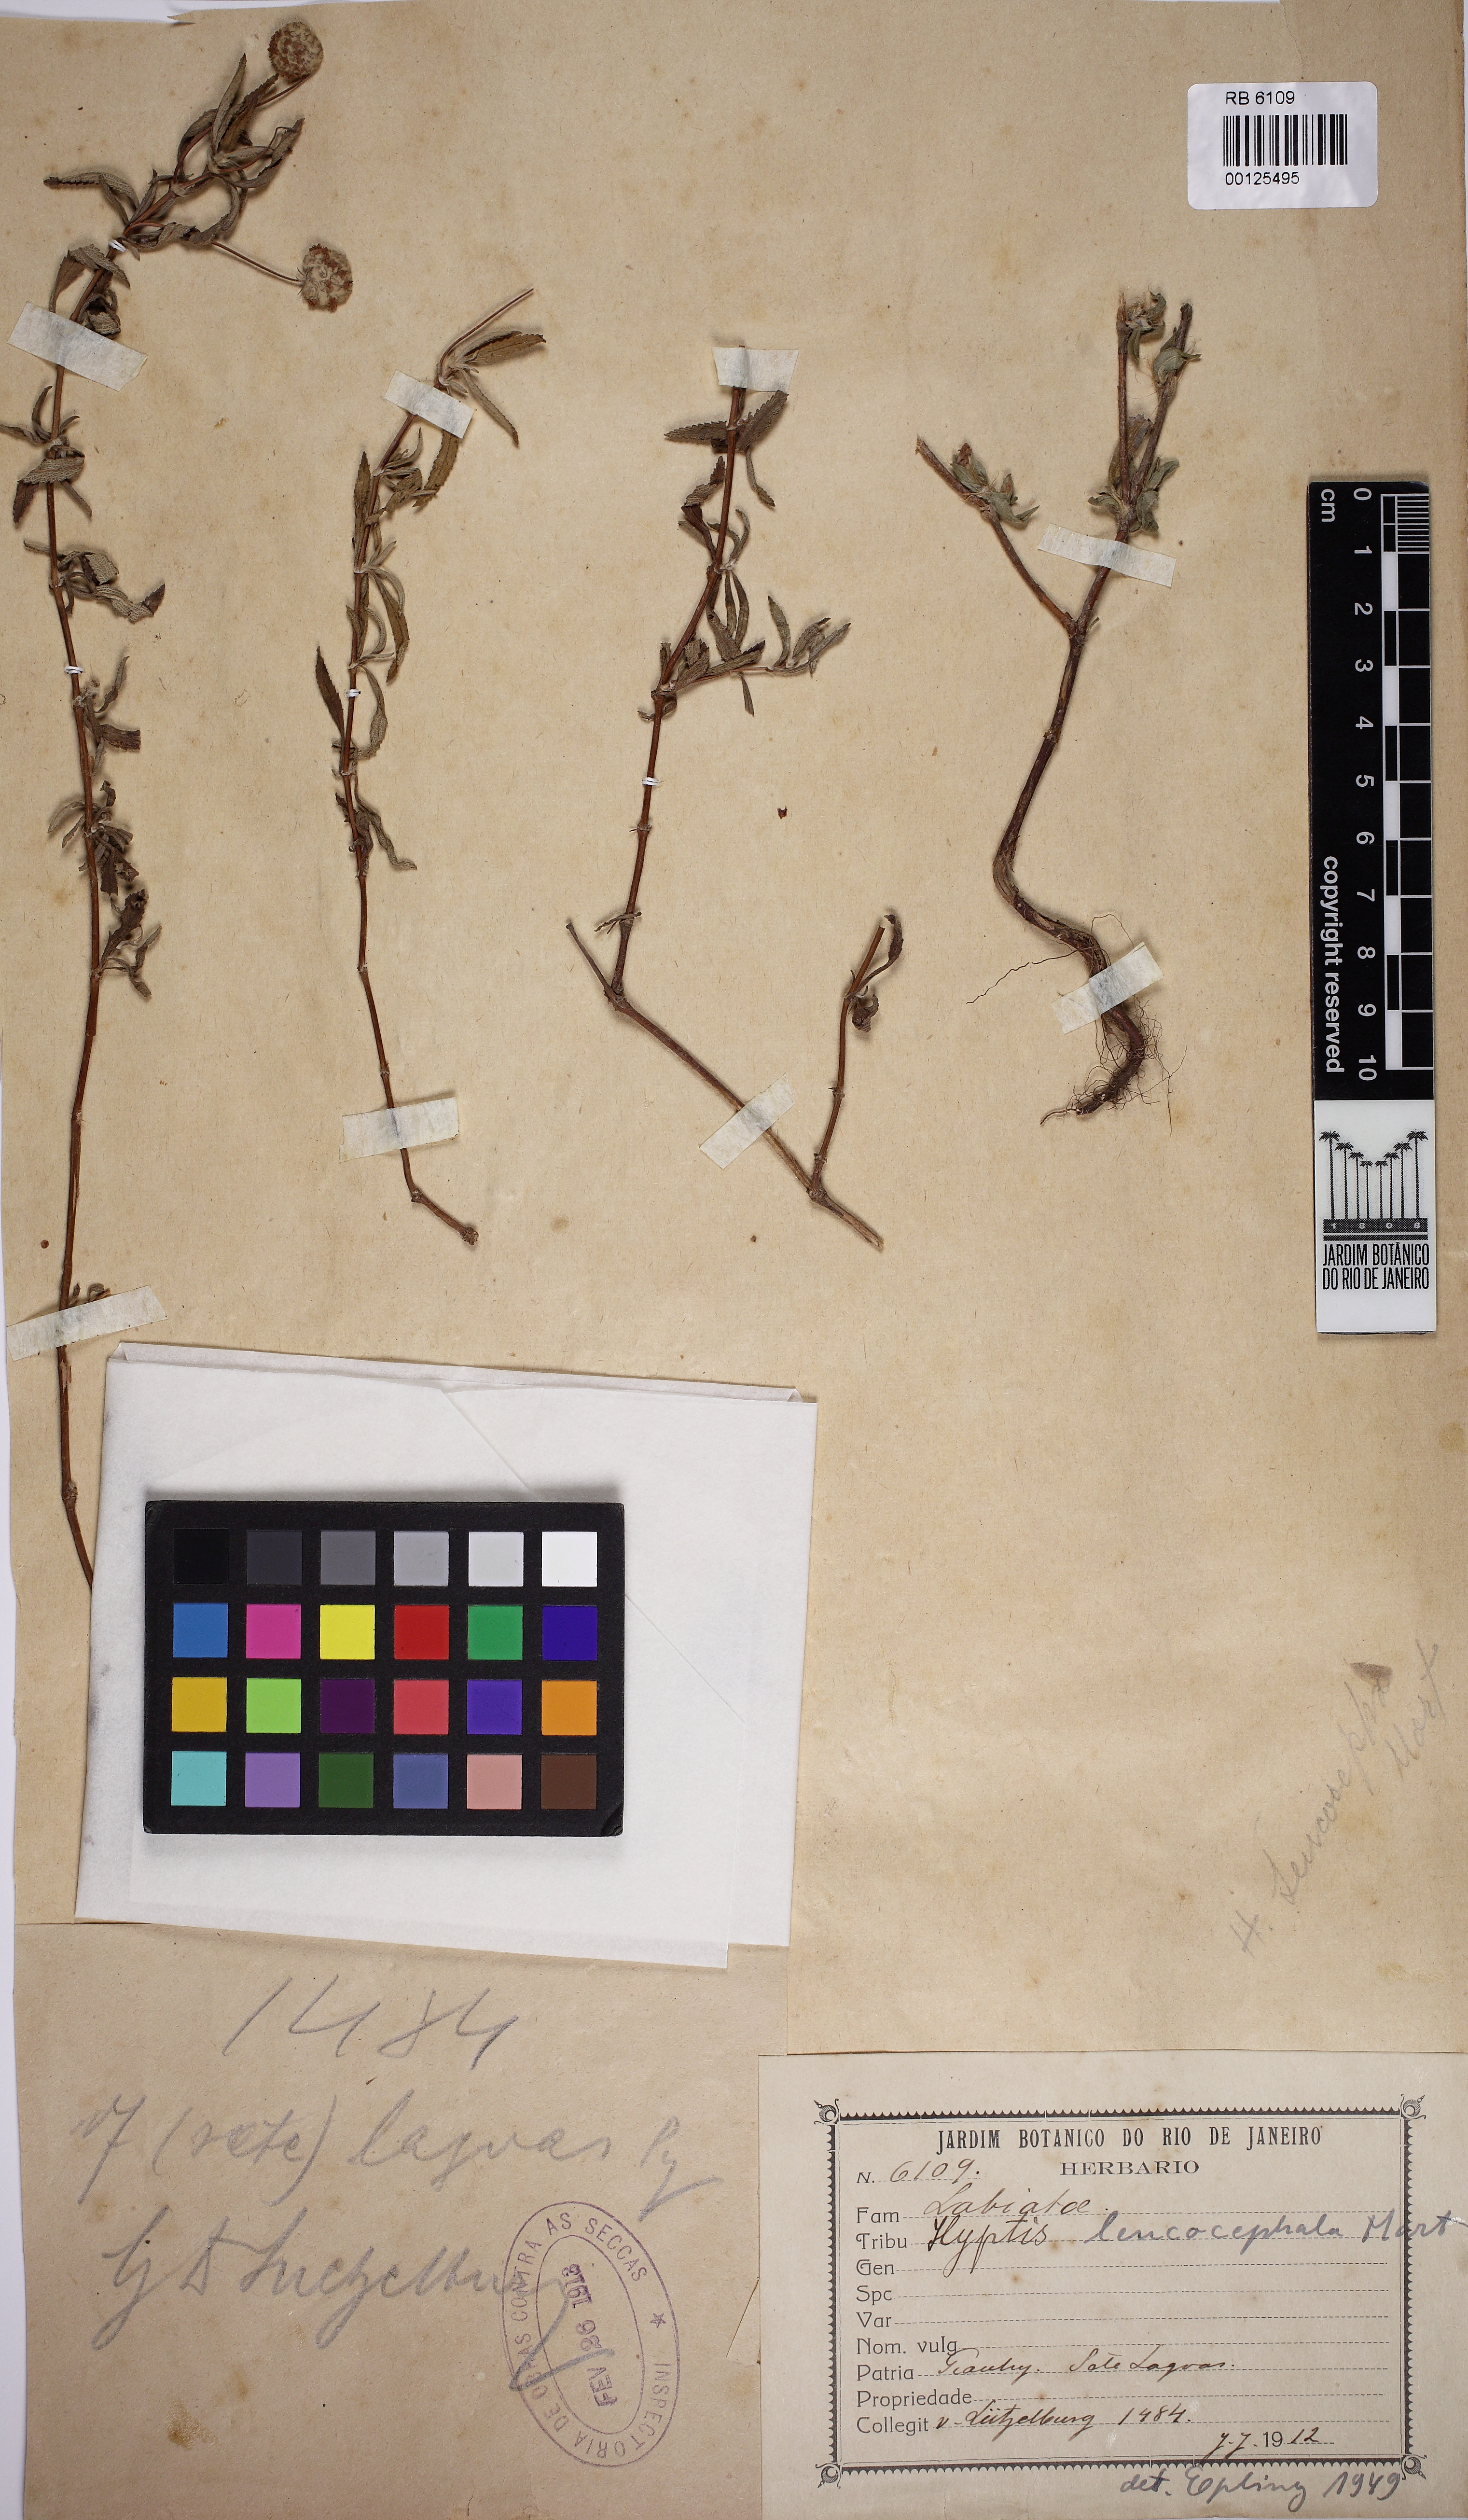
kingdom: Plantae
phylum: Tracheophyta
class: Magnoliopsida
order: Lamiales
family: Lamiaceae
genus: Martianthus
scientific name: Martianthus leucocephalus
